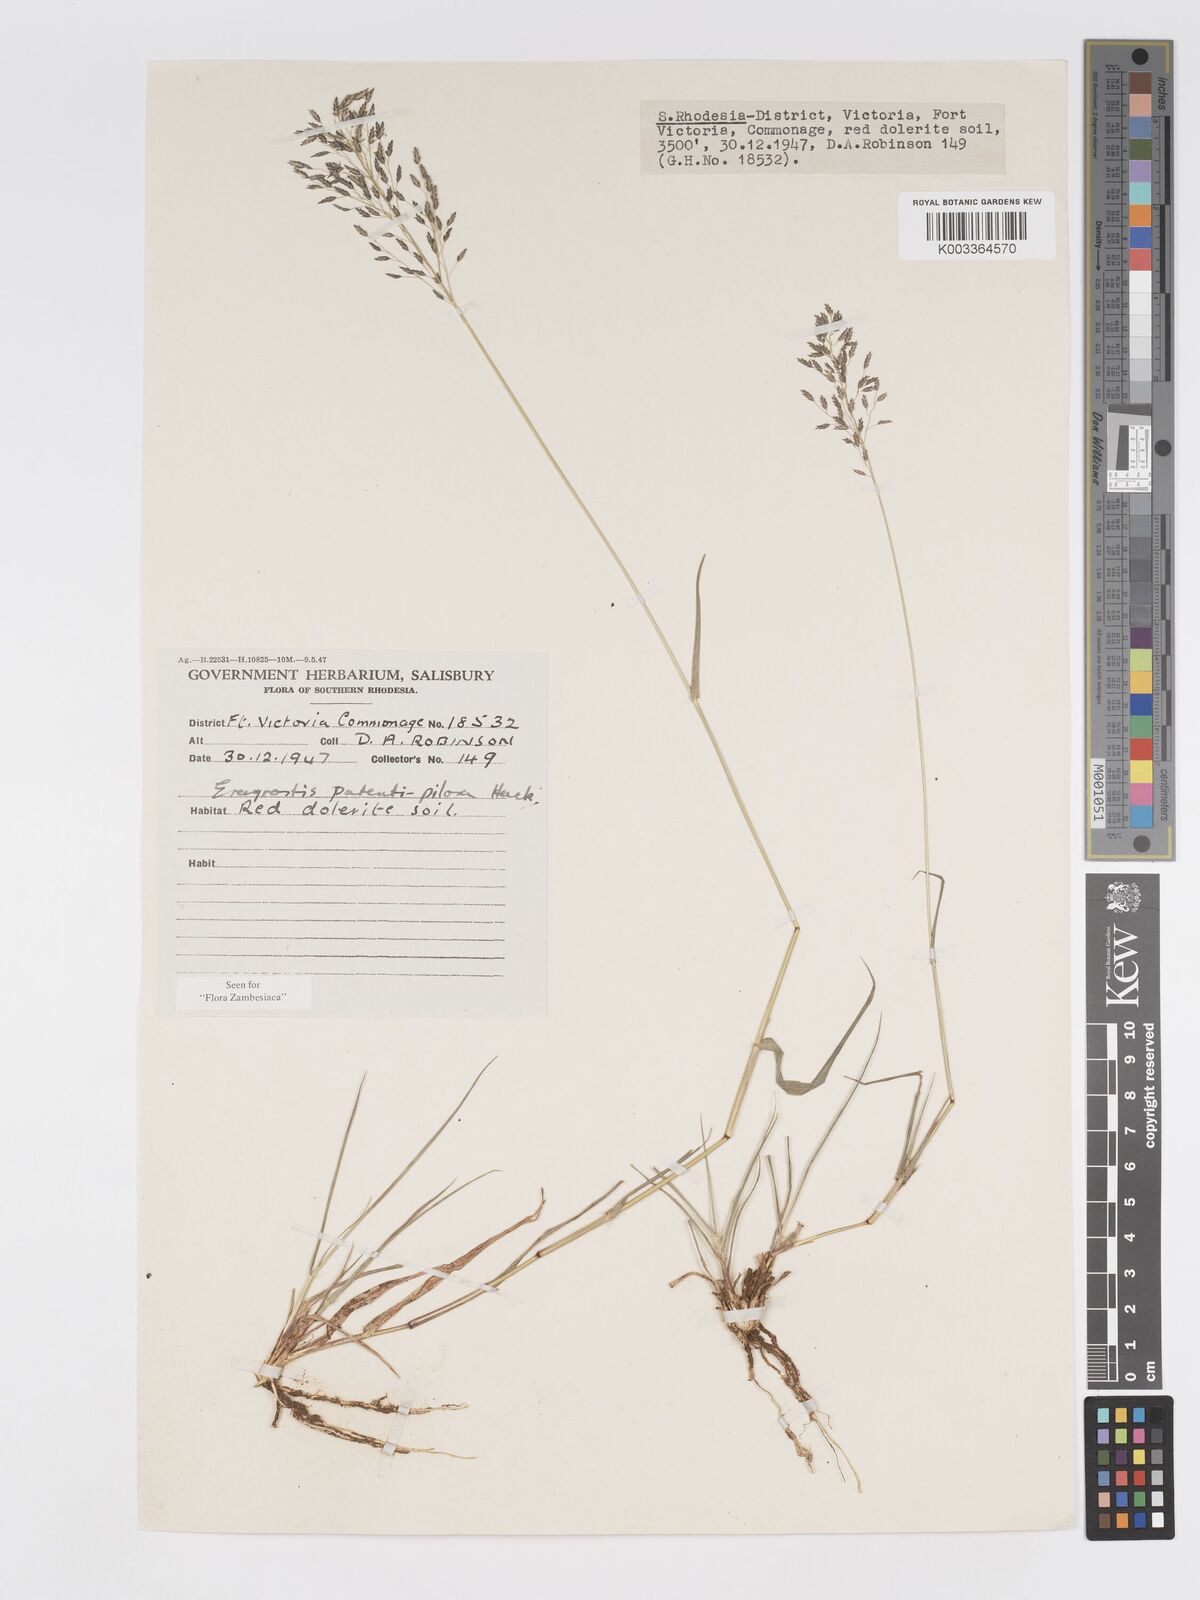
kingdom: Plantae
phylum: Tracheophyta
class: Liliopsida
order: Poales
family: Poaceae
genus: Eragrostis
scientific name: Eragrostis patentipilosa
